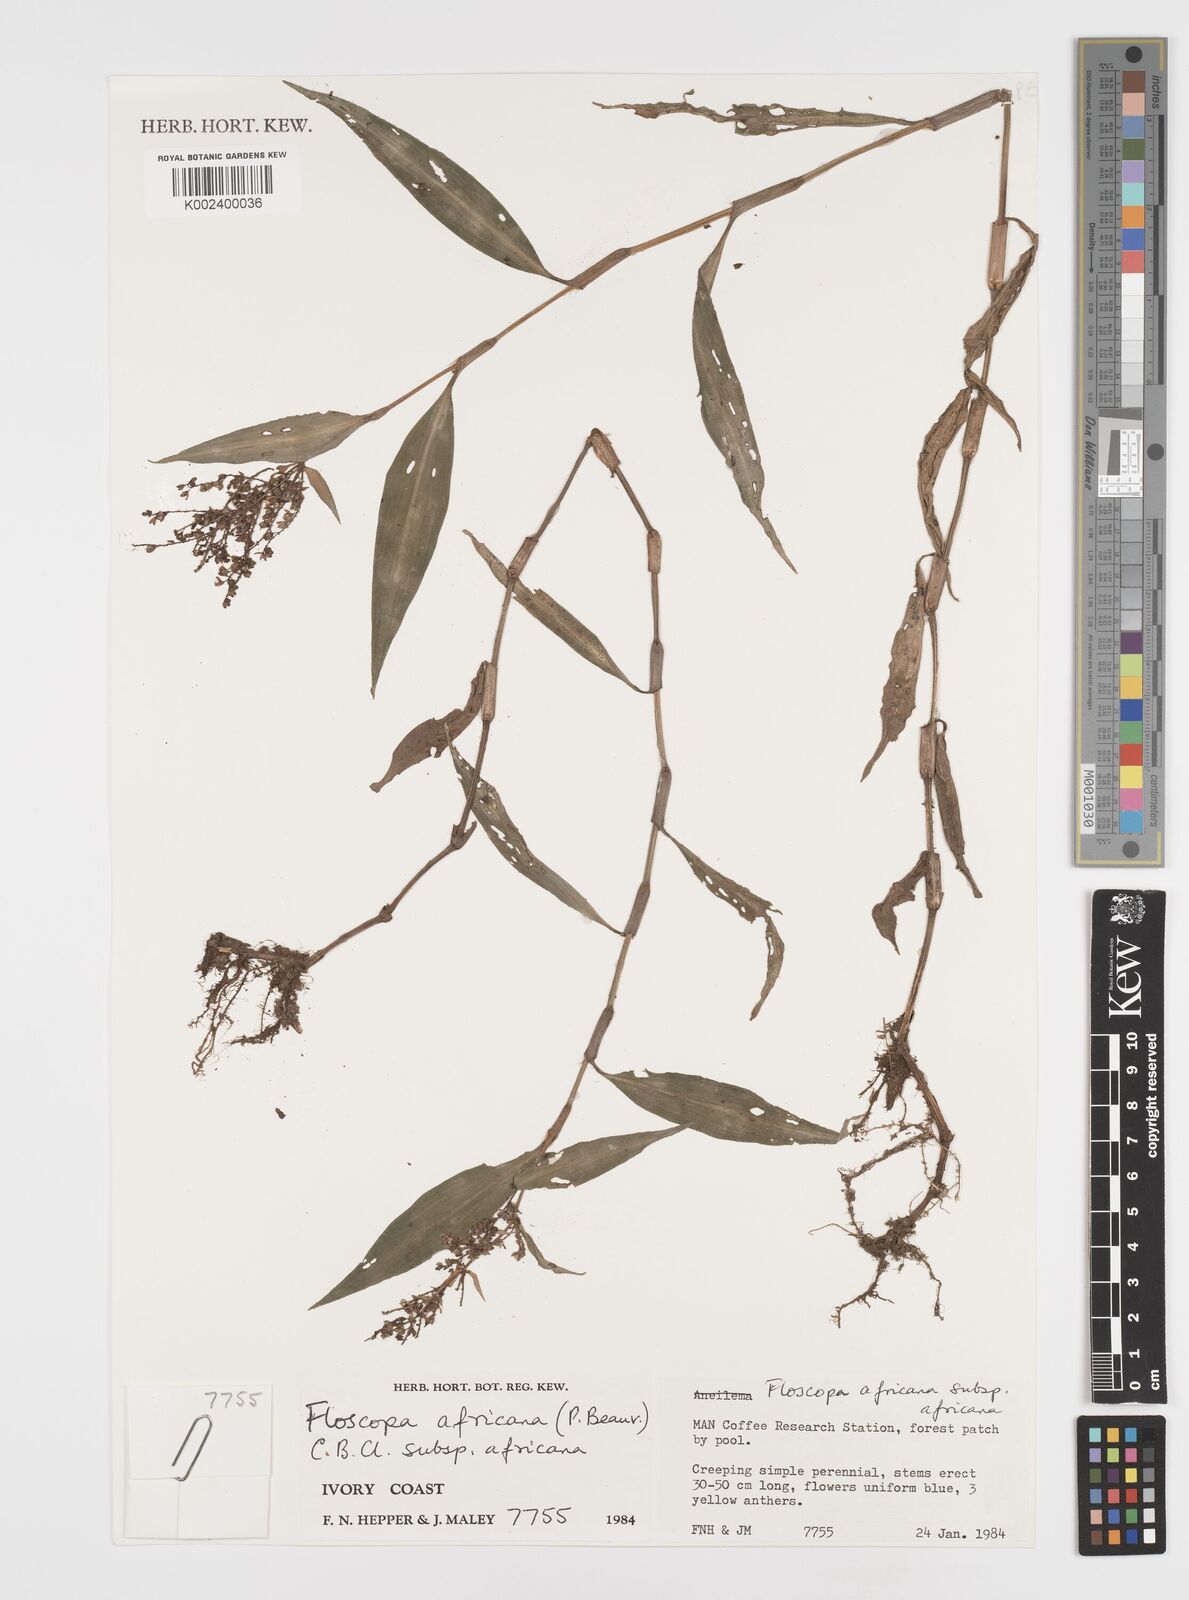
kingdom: Plantae
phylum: Tracheophyta
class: Liliopsida
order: Commelinales
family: Commelinaceae
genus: Floscopa
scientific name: Floscopa africana
